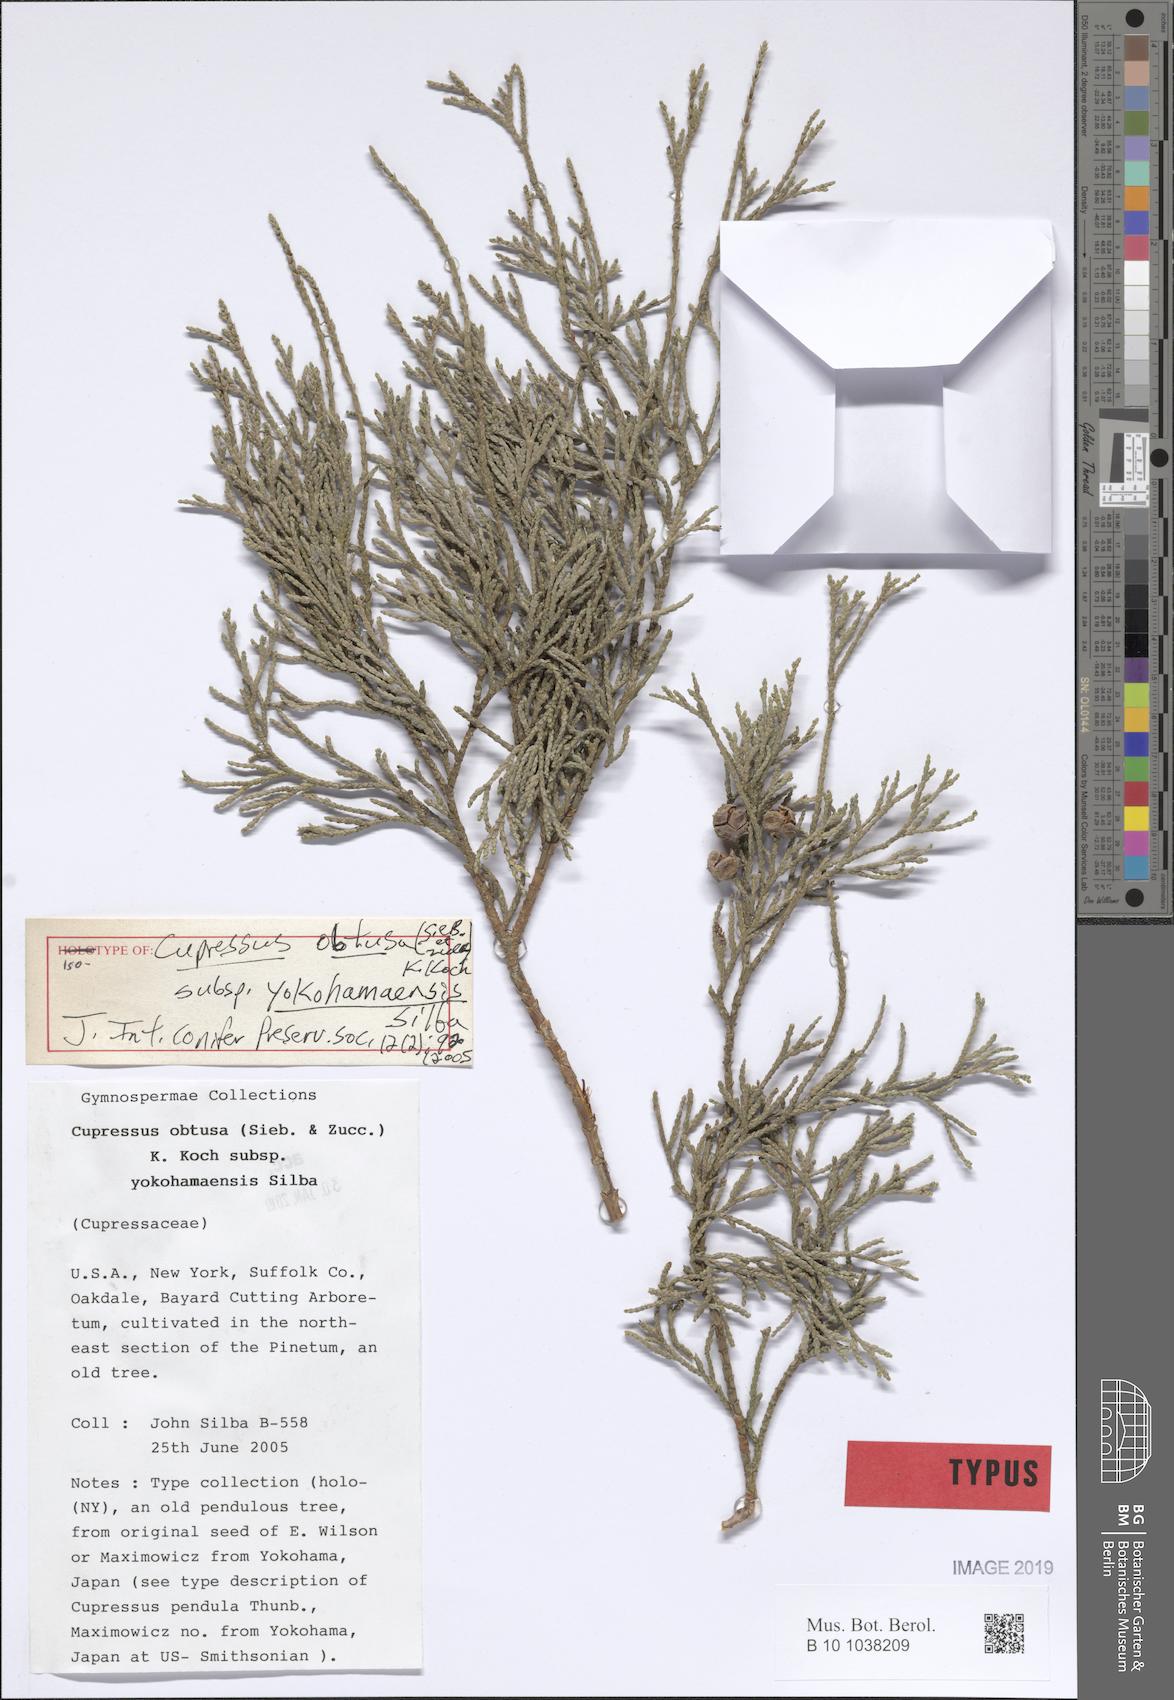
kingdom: Plantae
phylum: Tracheophyta
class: Pinopsida
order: Pinales
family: Cupressaceae
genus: Chamaecyparis
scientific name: Chamaecyparis obtusa
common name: Hinoki false cypress
